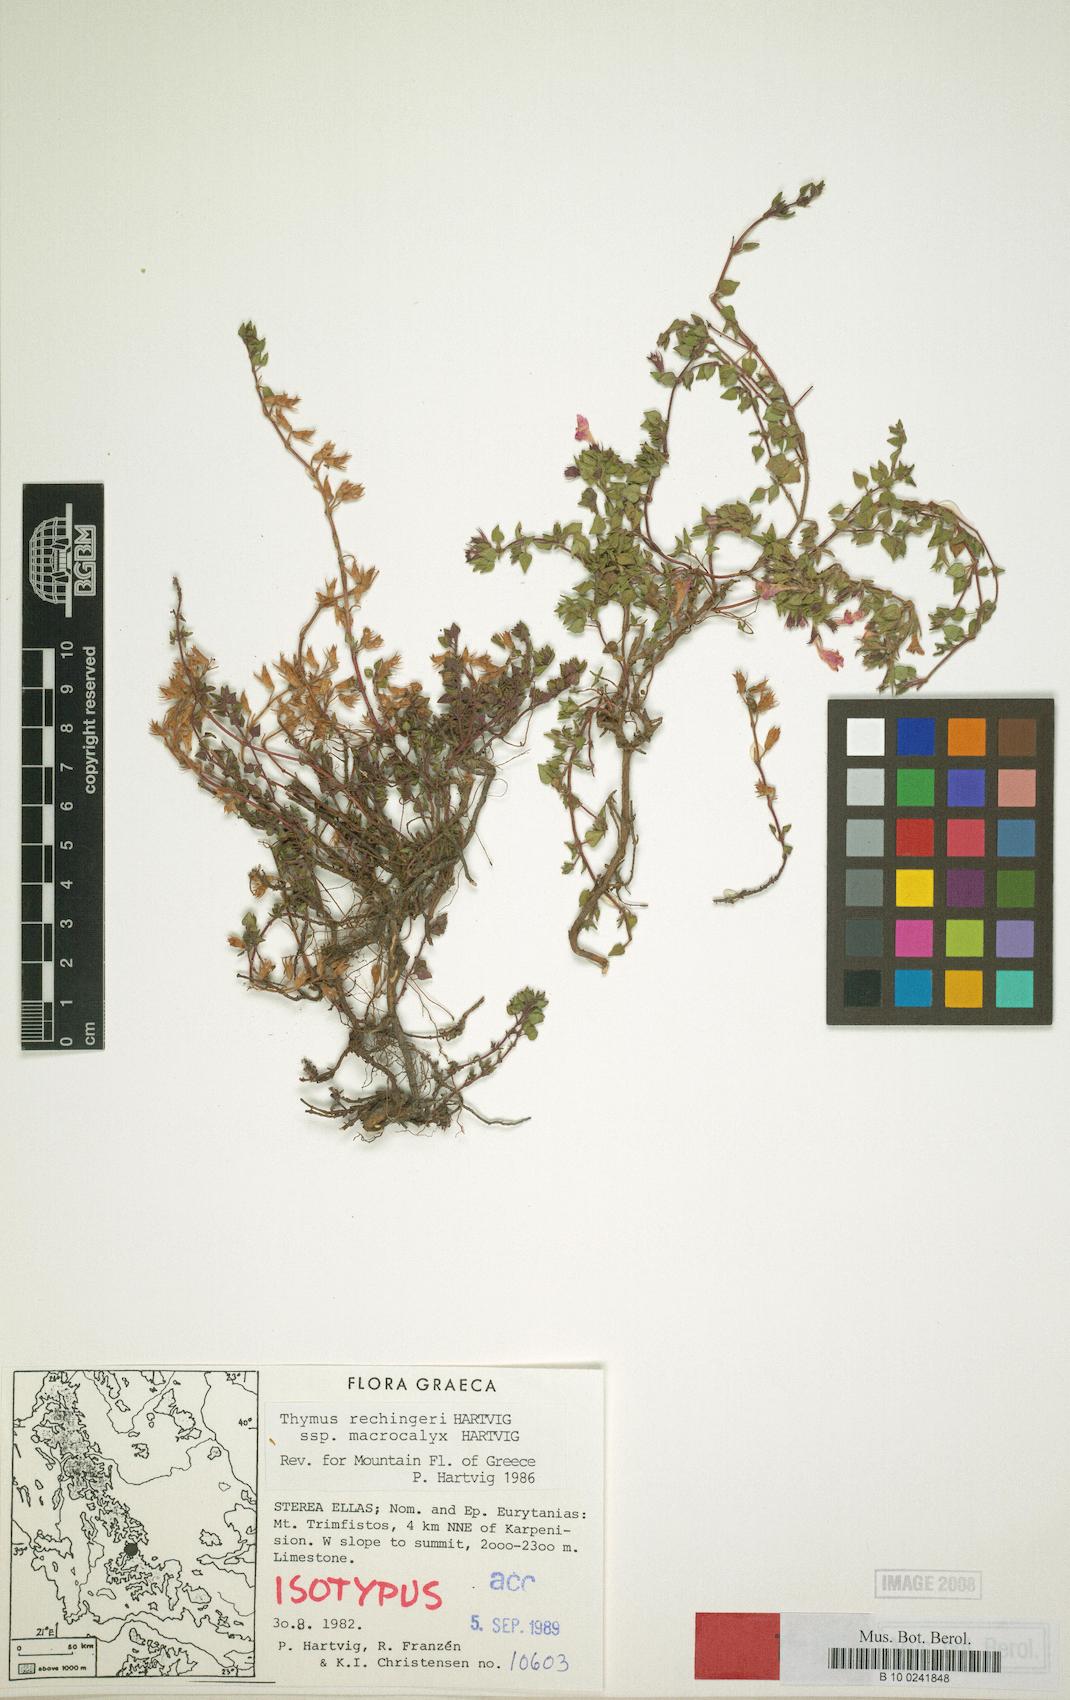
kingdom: Plantae
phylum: Tracheophyta
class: Magnoliopsida
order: Lamiales
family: Lamiaceae
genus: Thymus
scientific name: Thymus hartvigii
